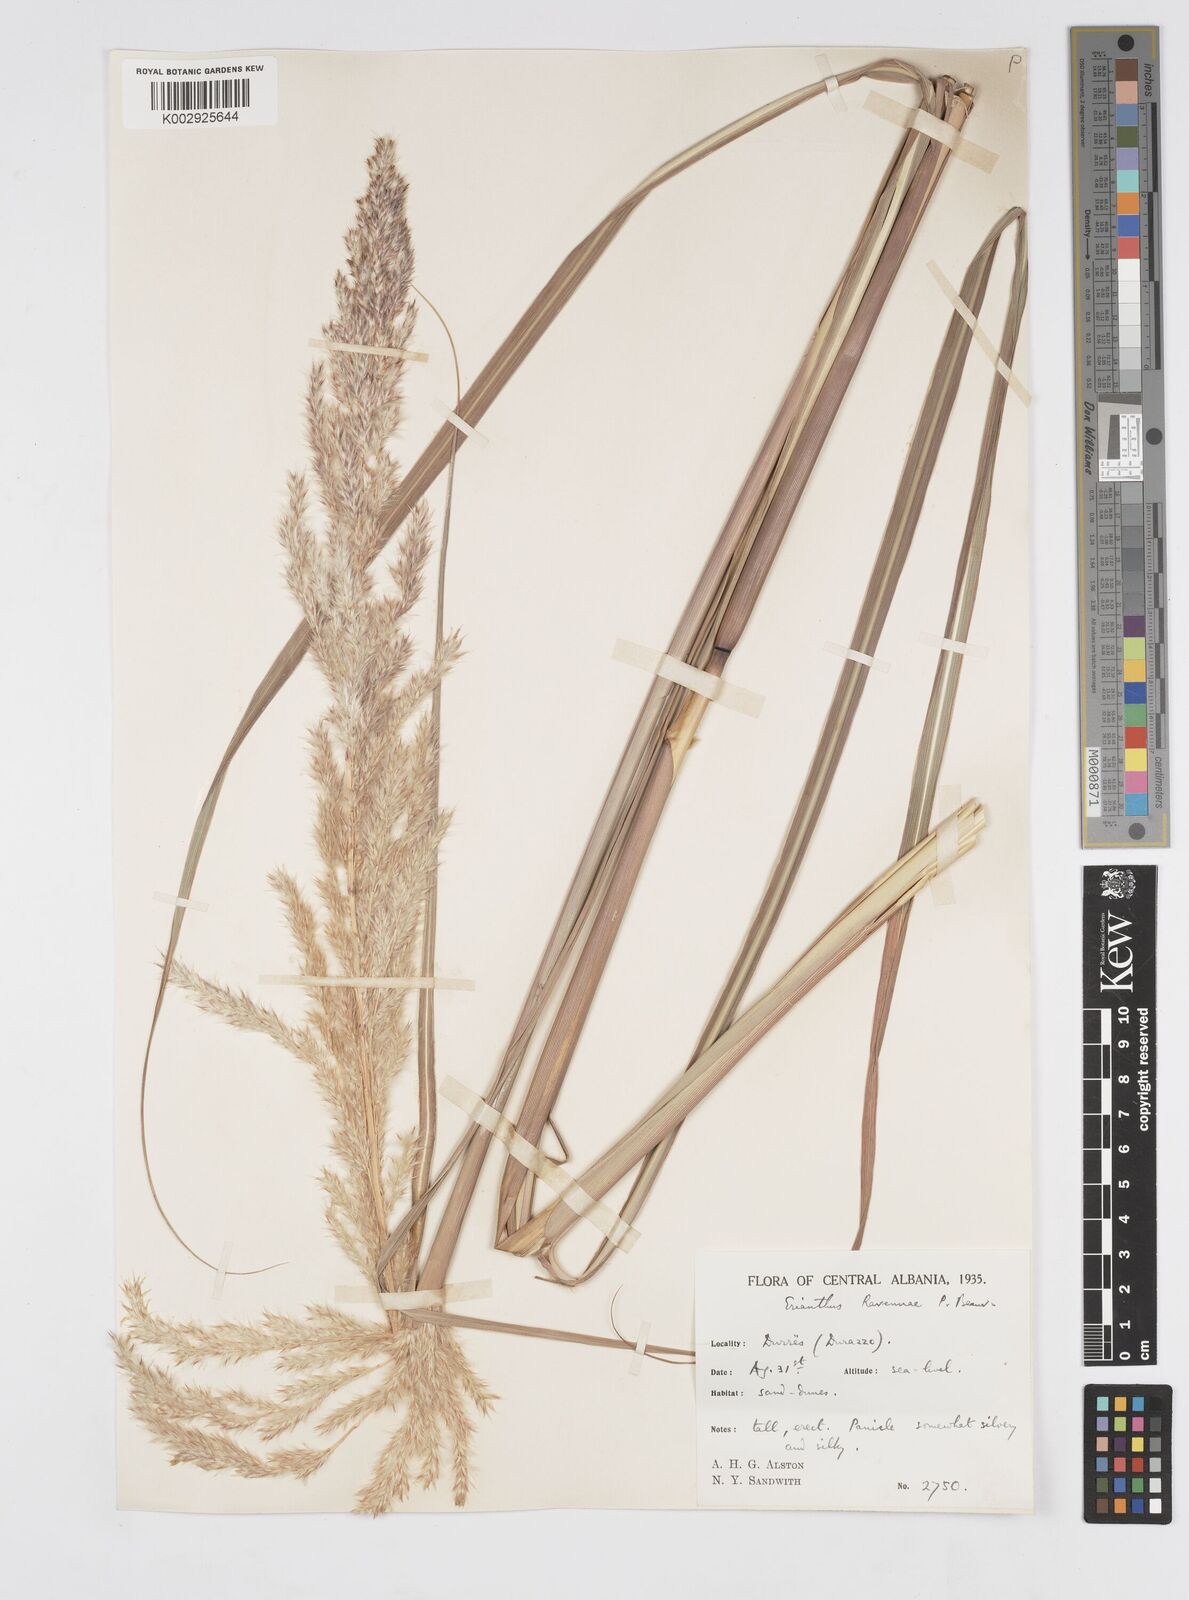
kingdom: Plantae
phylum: Tracheophyta
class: Liliopsida
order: Poales
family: Poaceae
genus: Tripidium
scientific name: Tripidium ravennae
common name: Ravenna grass
